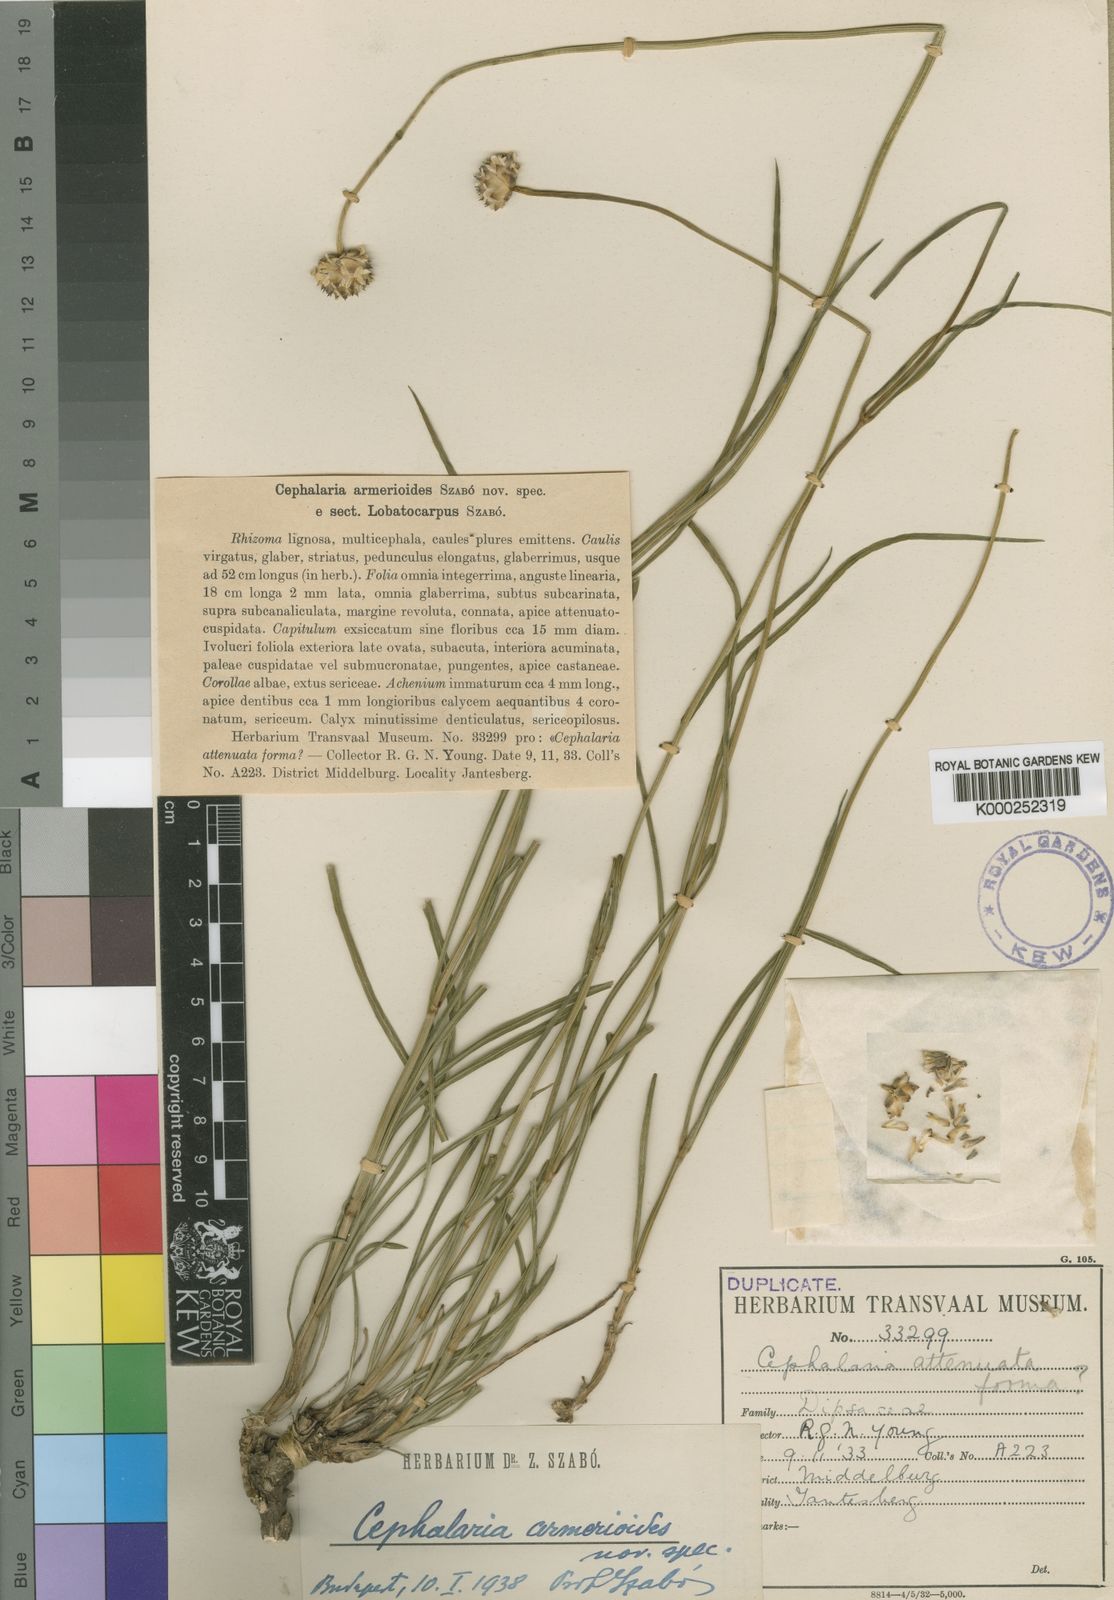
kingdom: Plantae
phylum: Tracheophyta
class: Magnoliopsida
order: Dipsacales
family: Caprifoliaceae
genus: Cephalaria
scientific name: Cephalaria armerioides
